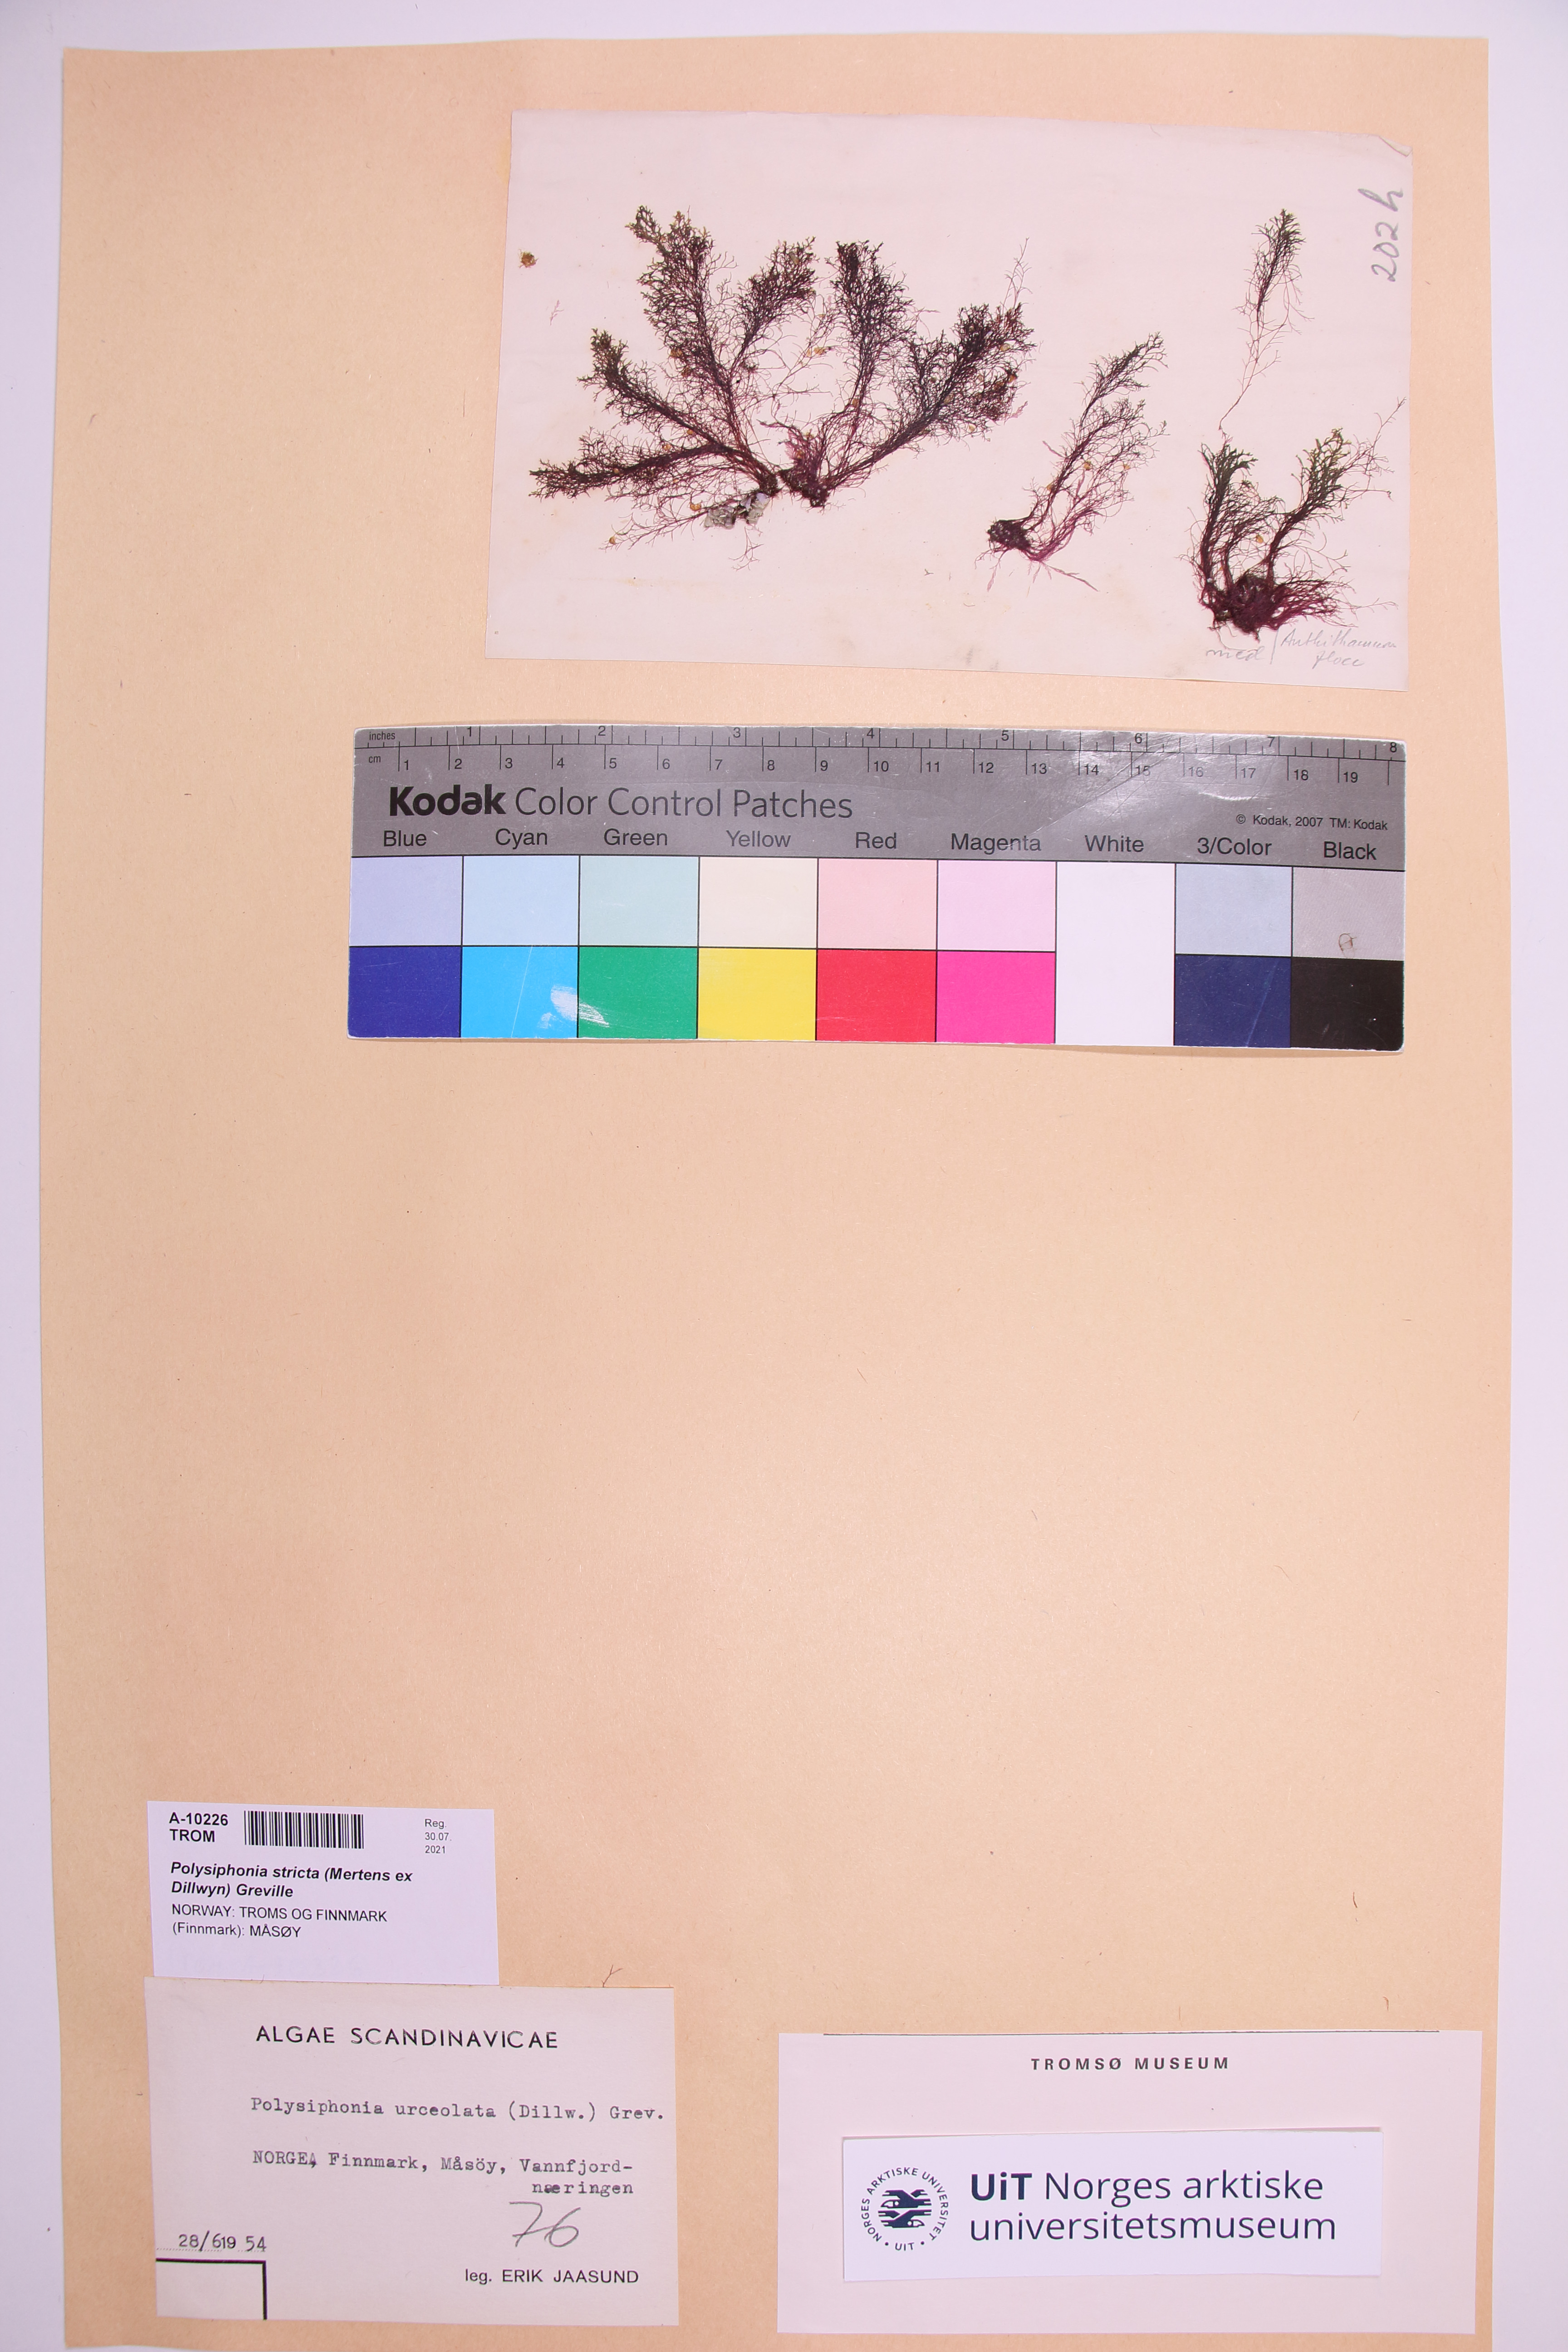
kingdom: Plantae
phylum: Rhodophyta
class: Florideophyceae
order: Ceramiales
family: Rhodomelaceae
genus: Polysiphonia
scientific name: Polysiphonia stricta
